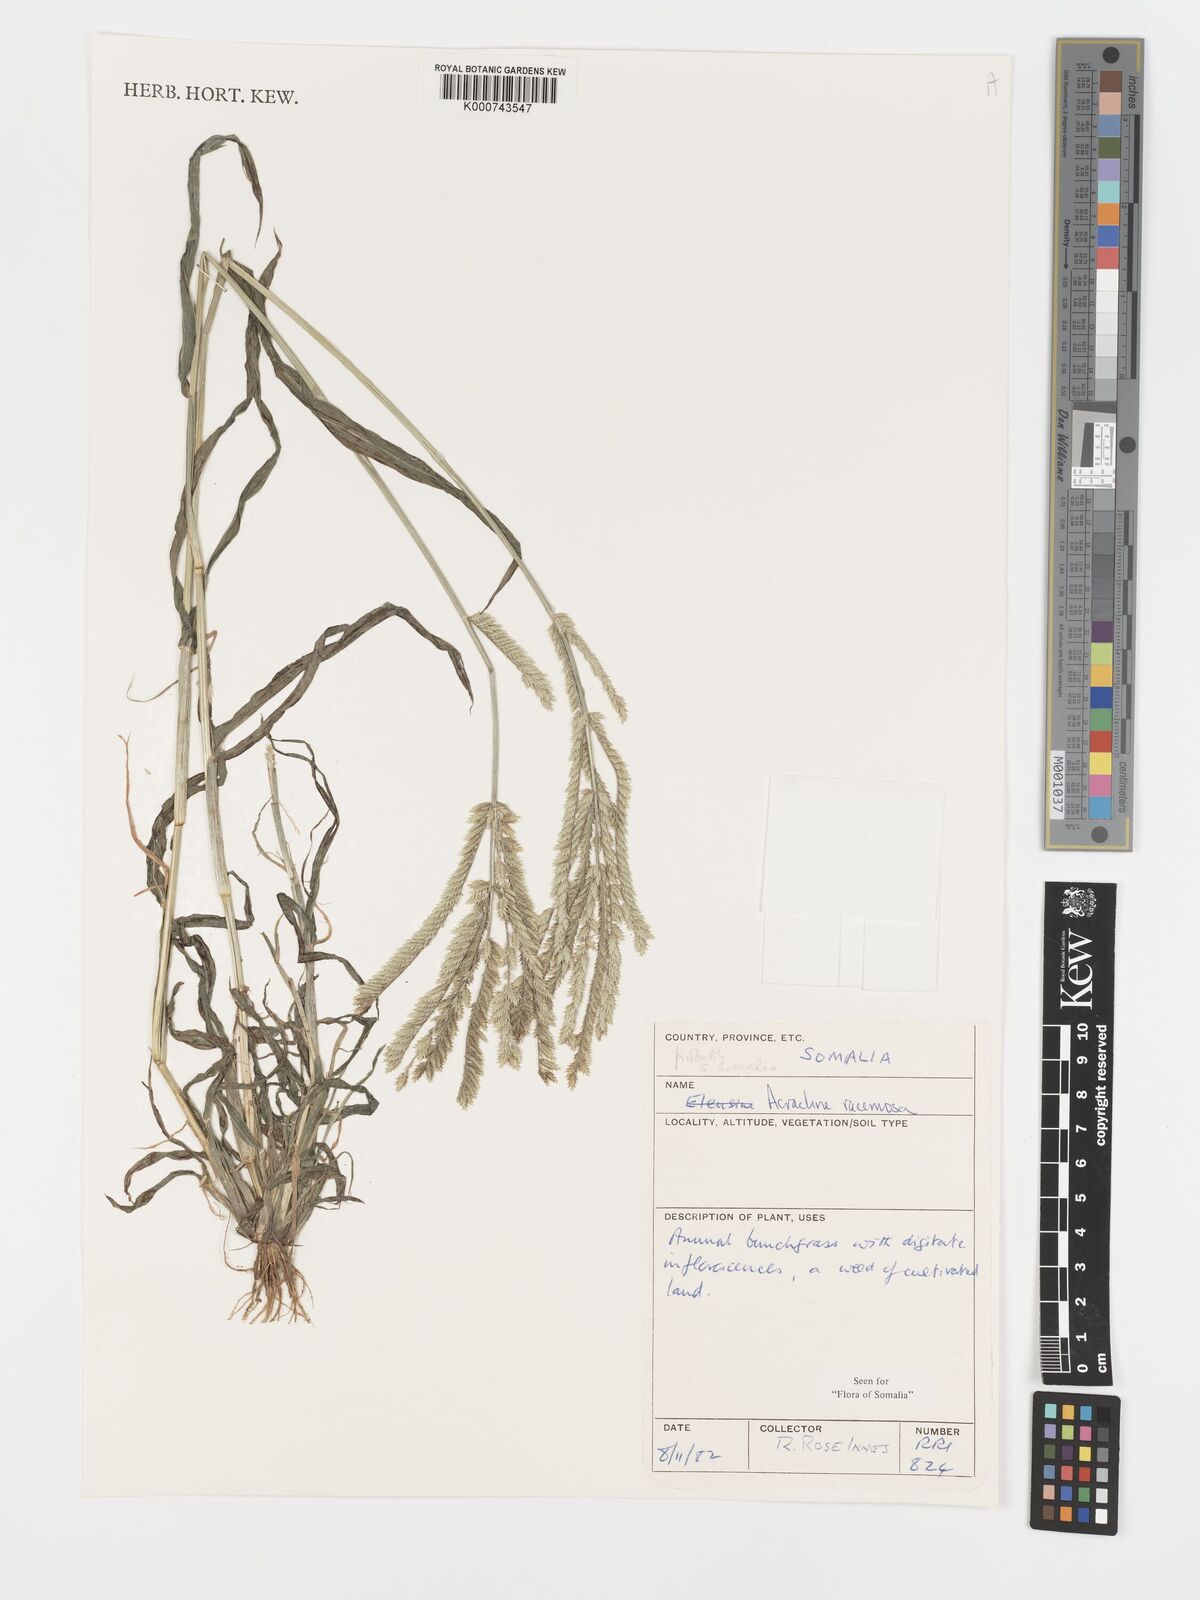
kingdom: Plantae
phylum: Tracheophyta
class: Liliopsida
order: Poales
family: Poaceae
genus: Acrachne
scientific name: Acrachne racemosa
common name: Goosegrass
